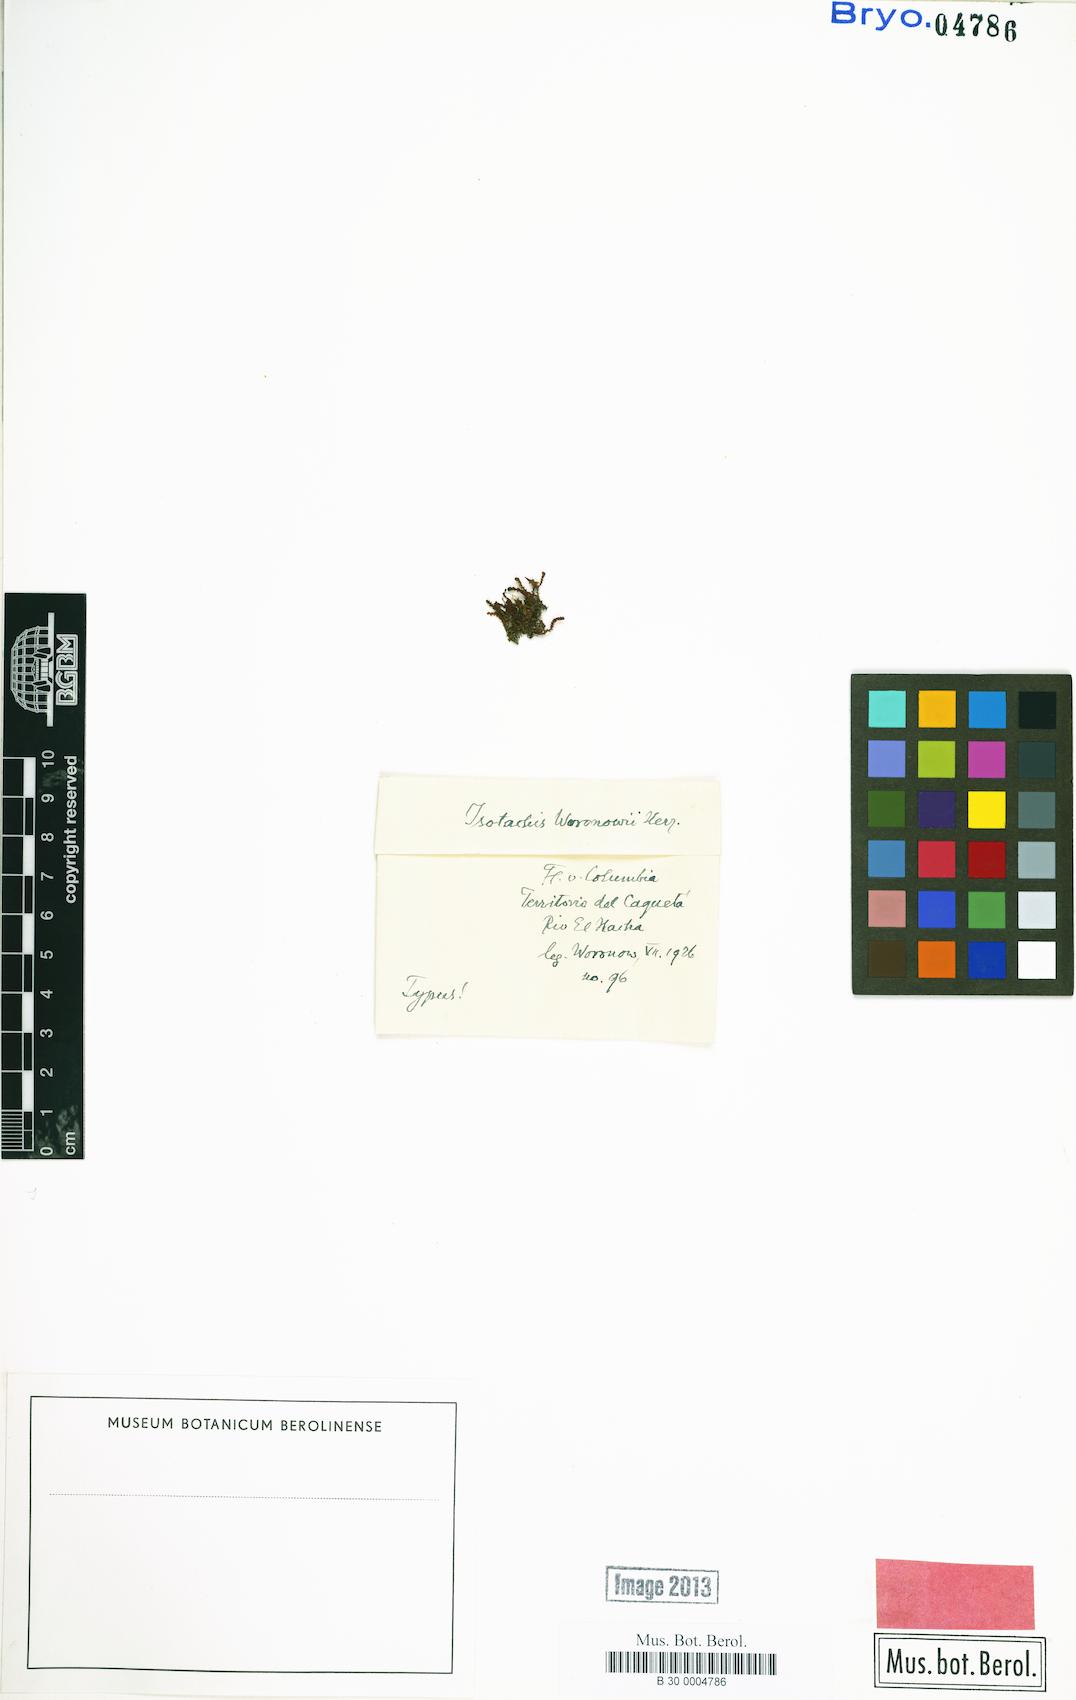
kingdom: Plantae
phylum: Marchantiophyta
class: Jungermanniopsida
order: Jungermanniales
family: Balantiopsidaceae
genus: Isotachis
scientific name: Isotachis serrulata
